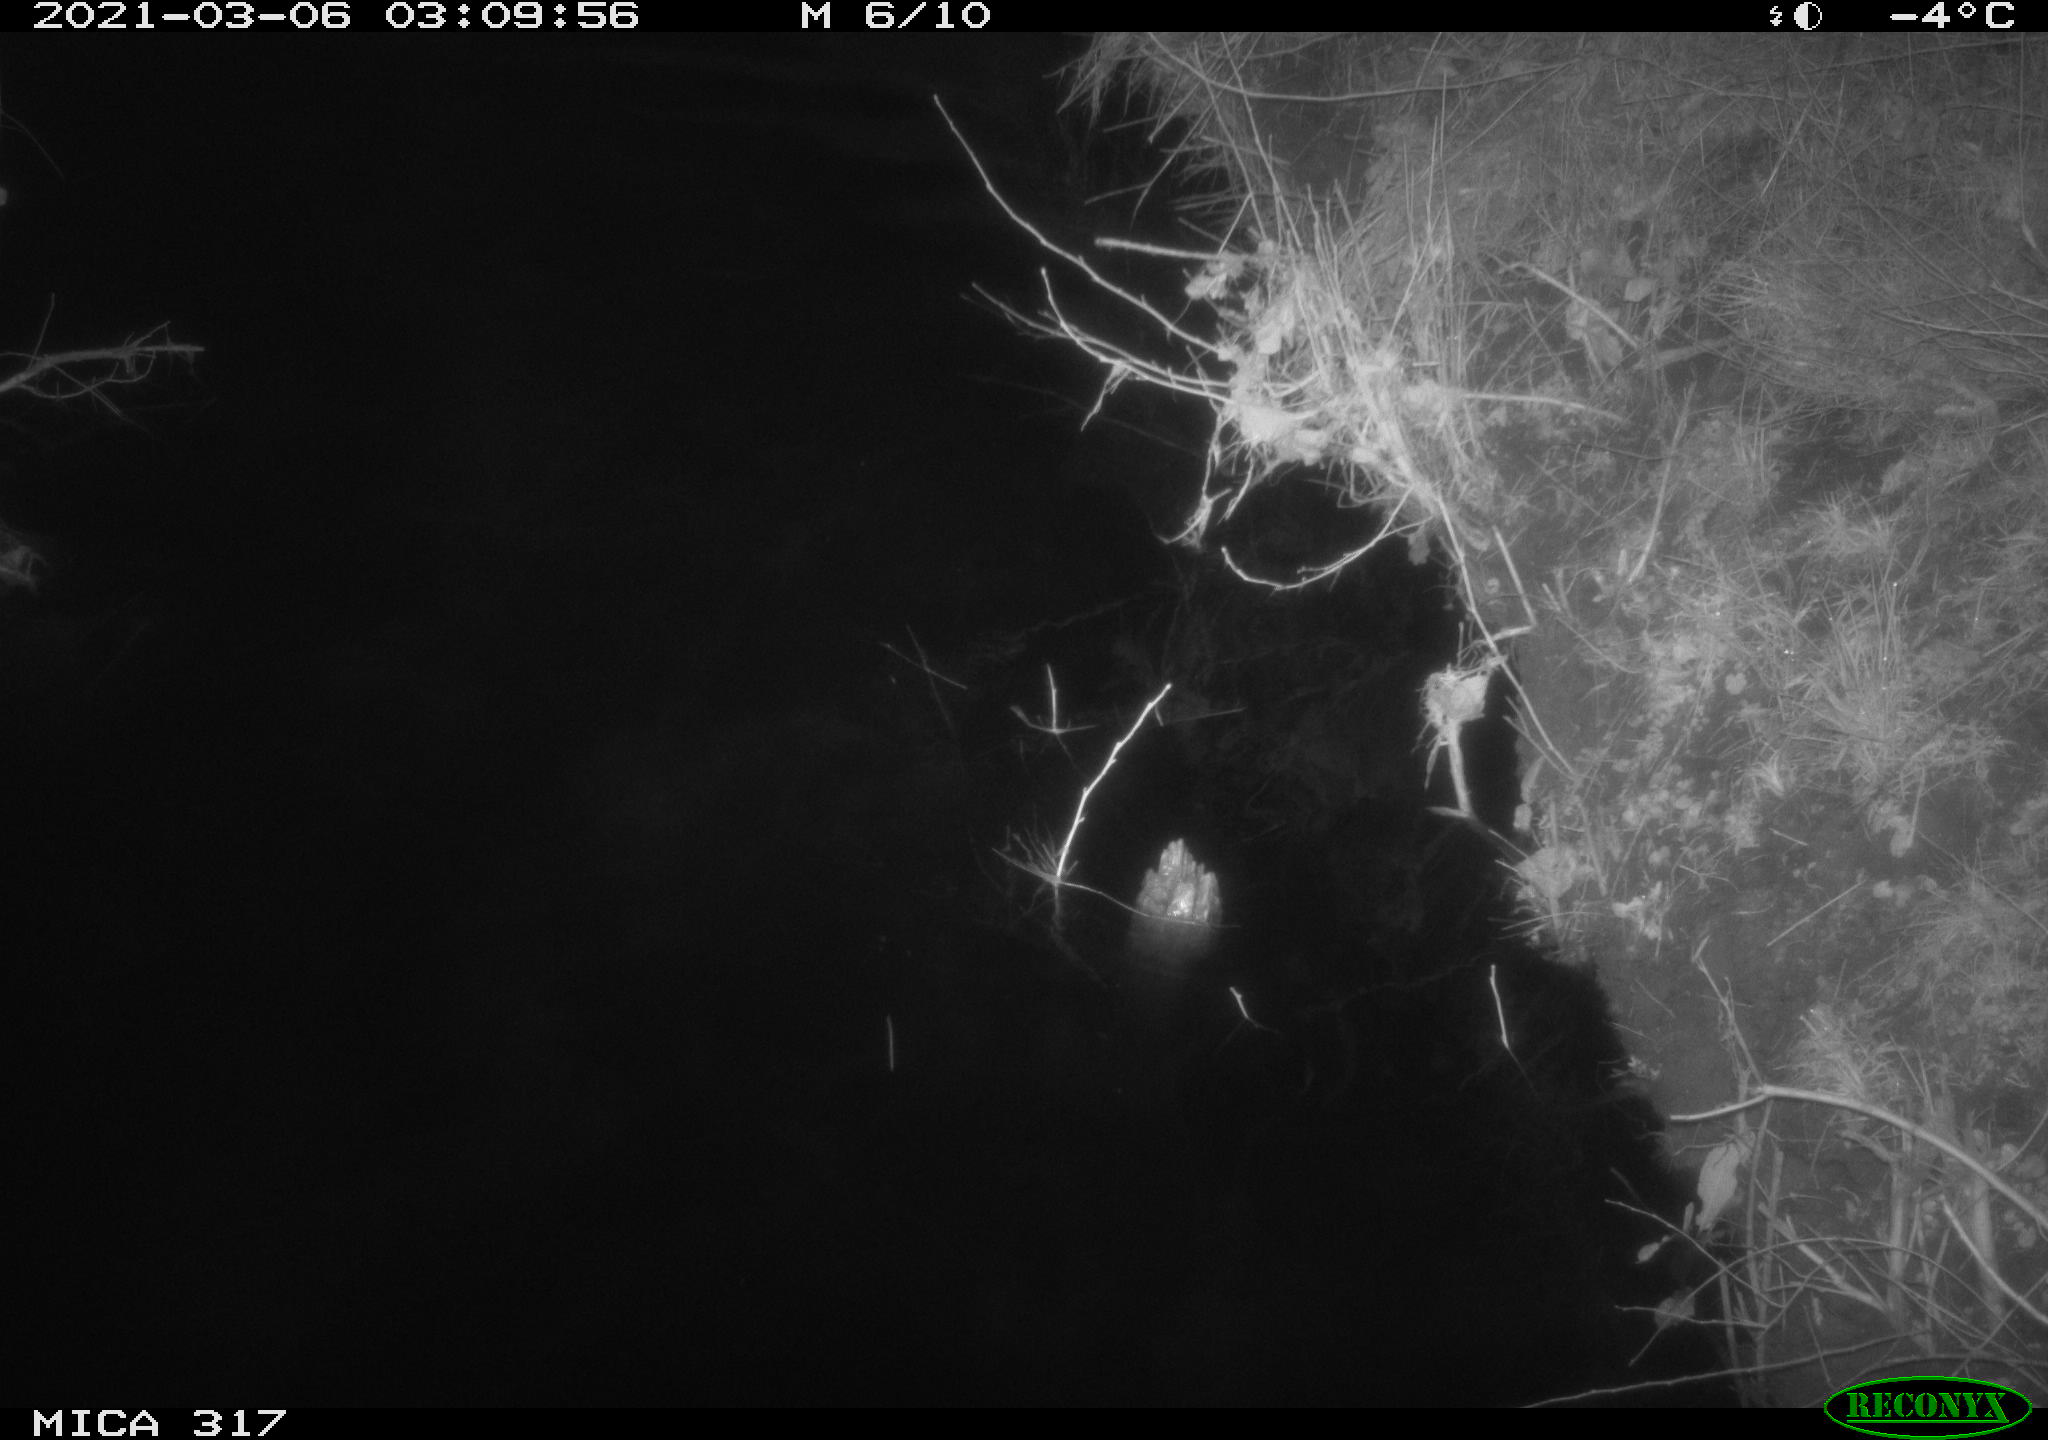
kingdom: Animalia
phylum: Chordata
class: Aves
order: Anseriformes
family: Anatidae
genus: Anas
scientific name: Anas platyrhynchos
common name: Mallard
